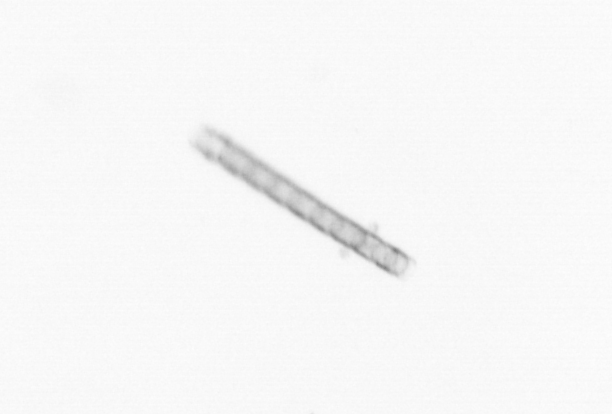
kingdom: Chromista
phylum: Ochrophyta
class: Bacillariophyceae
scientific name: Bacillariophyceae
